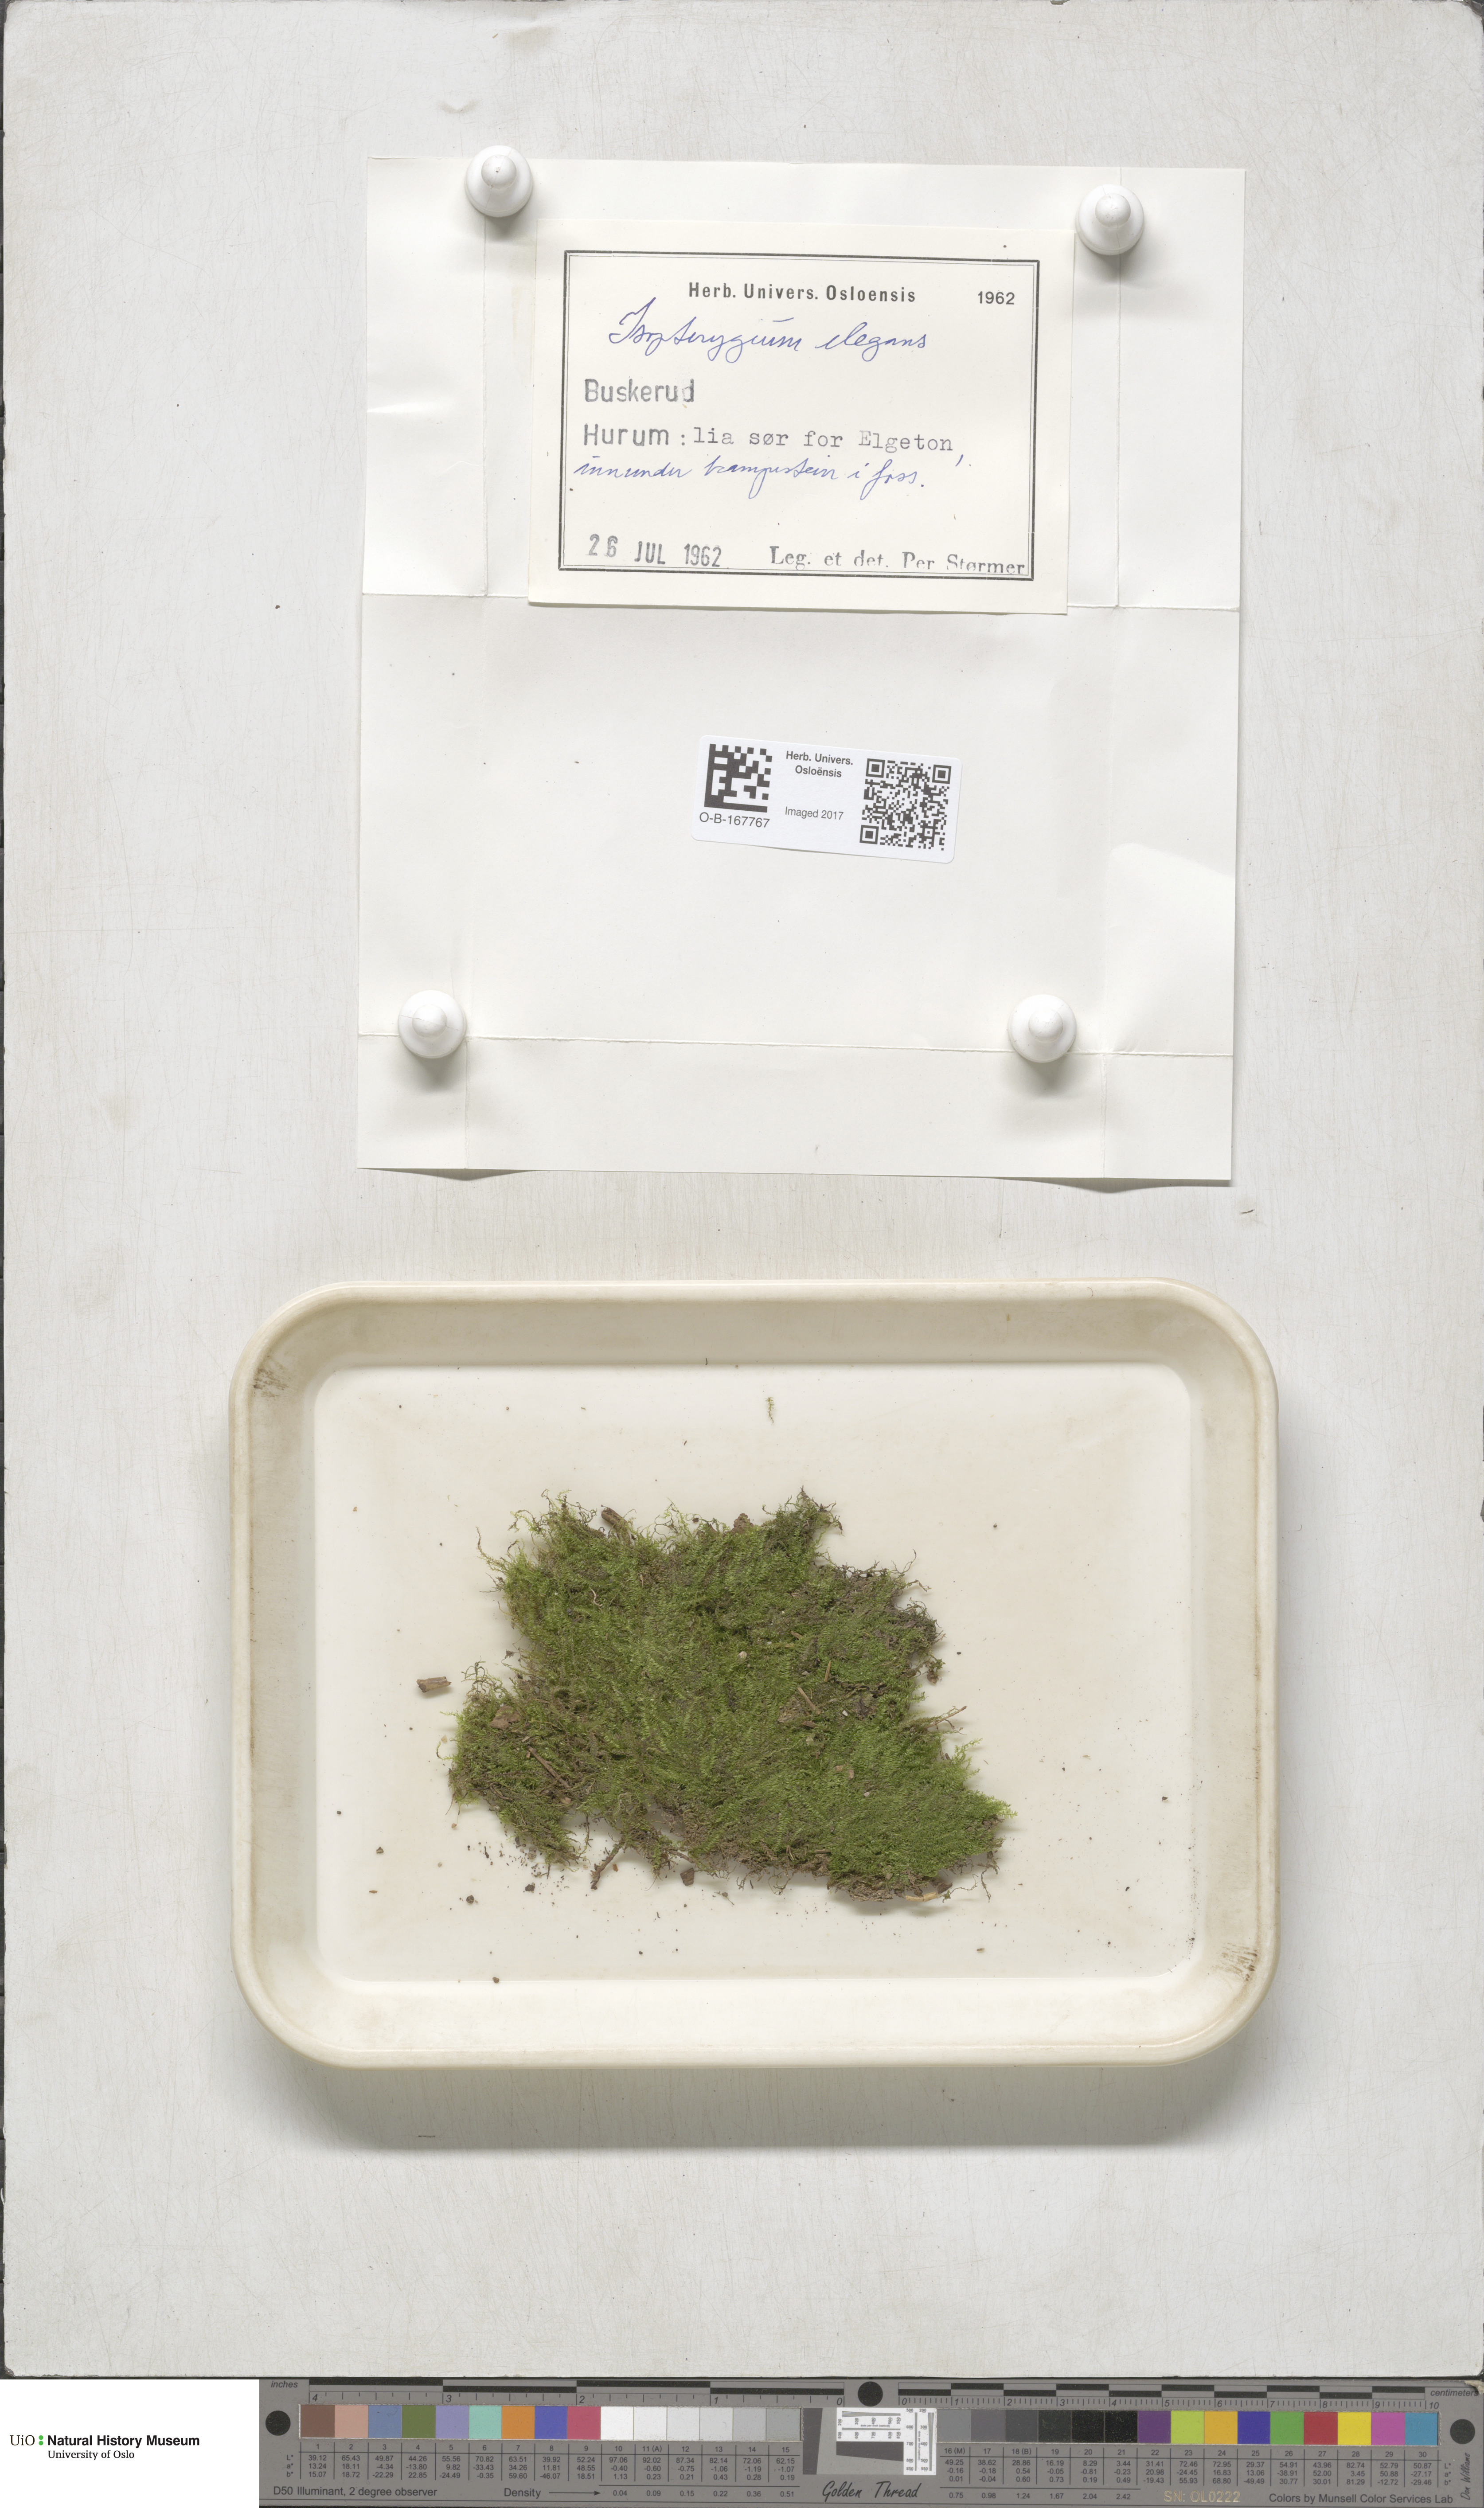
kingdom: Plantae
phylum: Bryophyta
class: Bryopsida
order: Hypnales
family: Plagiotheciaceae
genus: Pseudotaxiphyllum
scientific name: Pseudotaxiphyllum elegans
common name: Elegant silk moss
